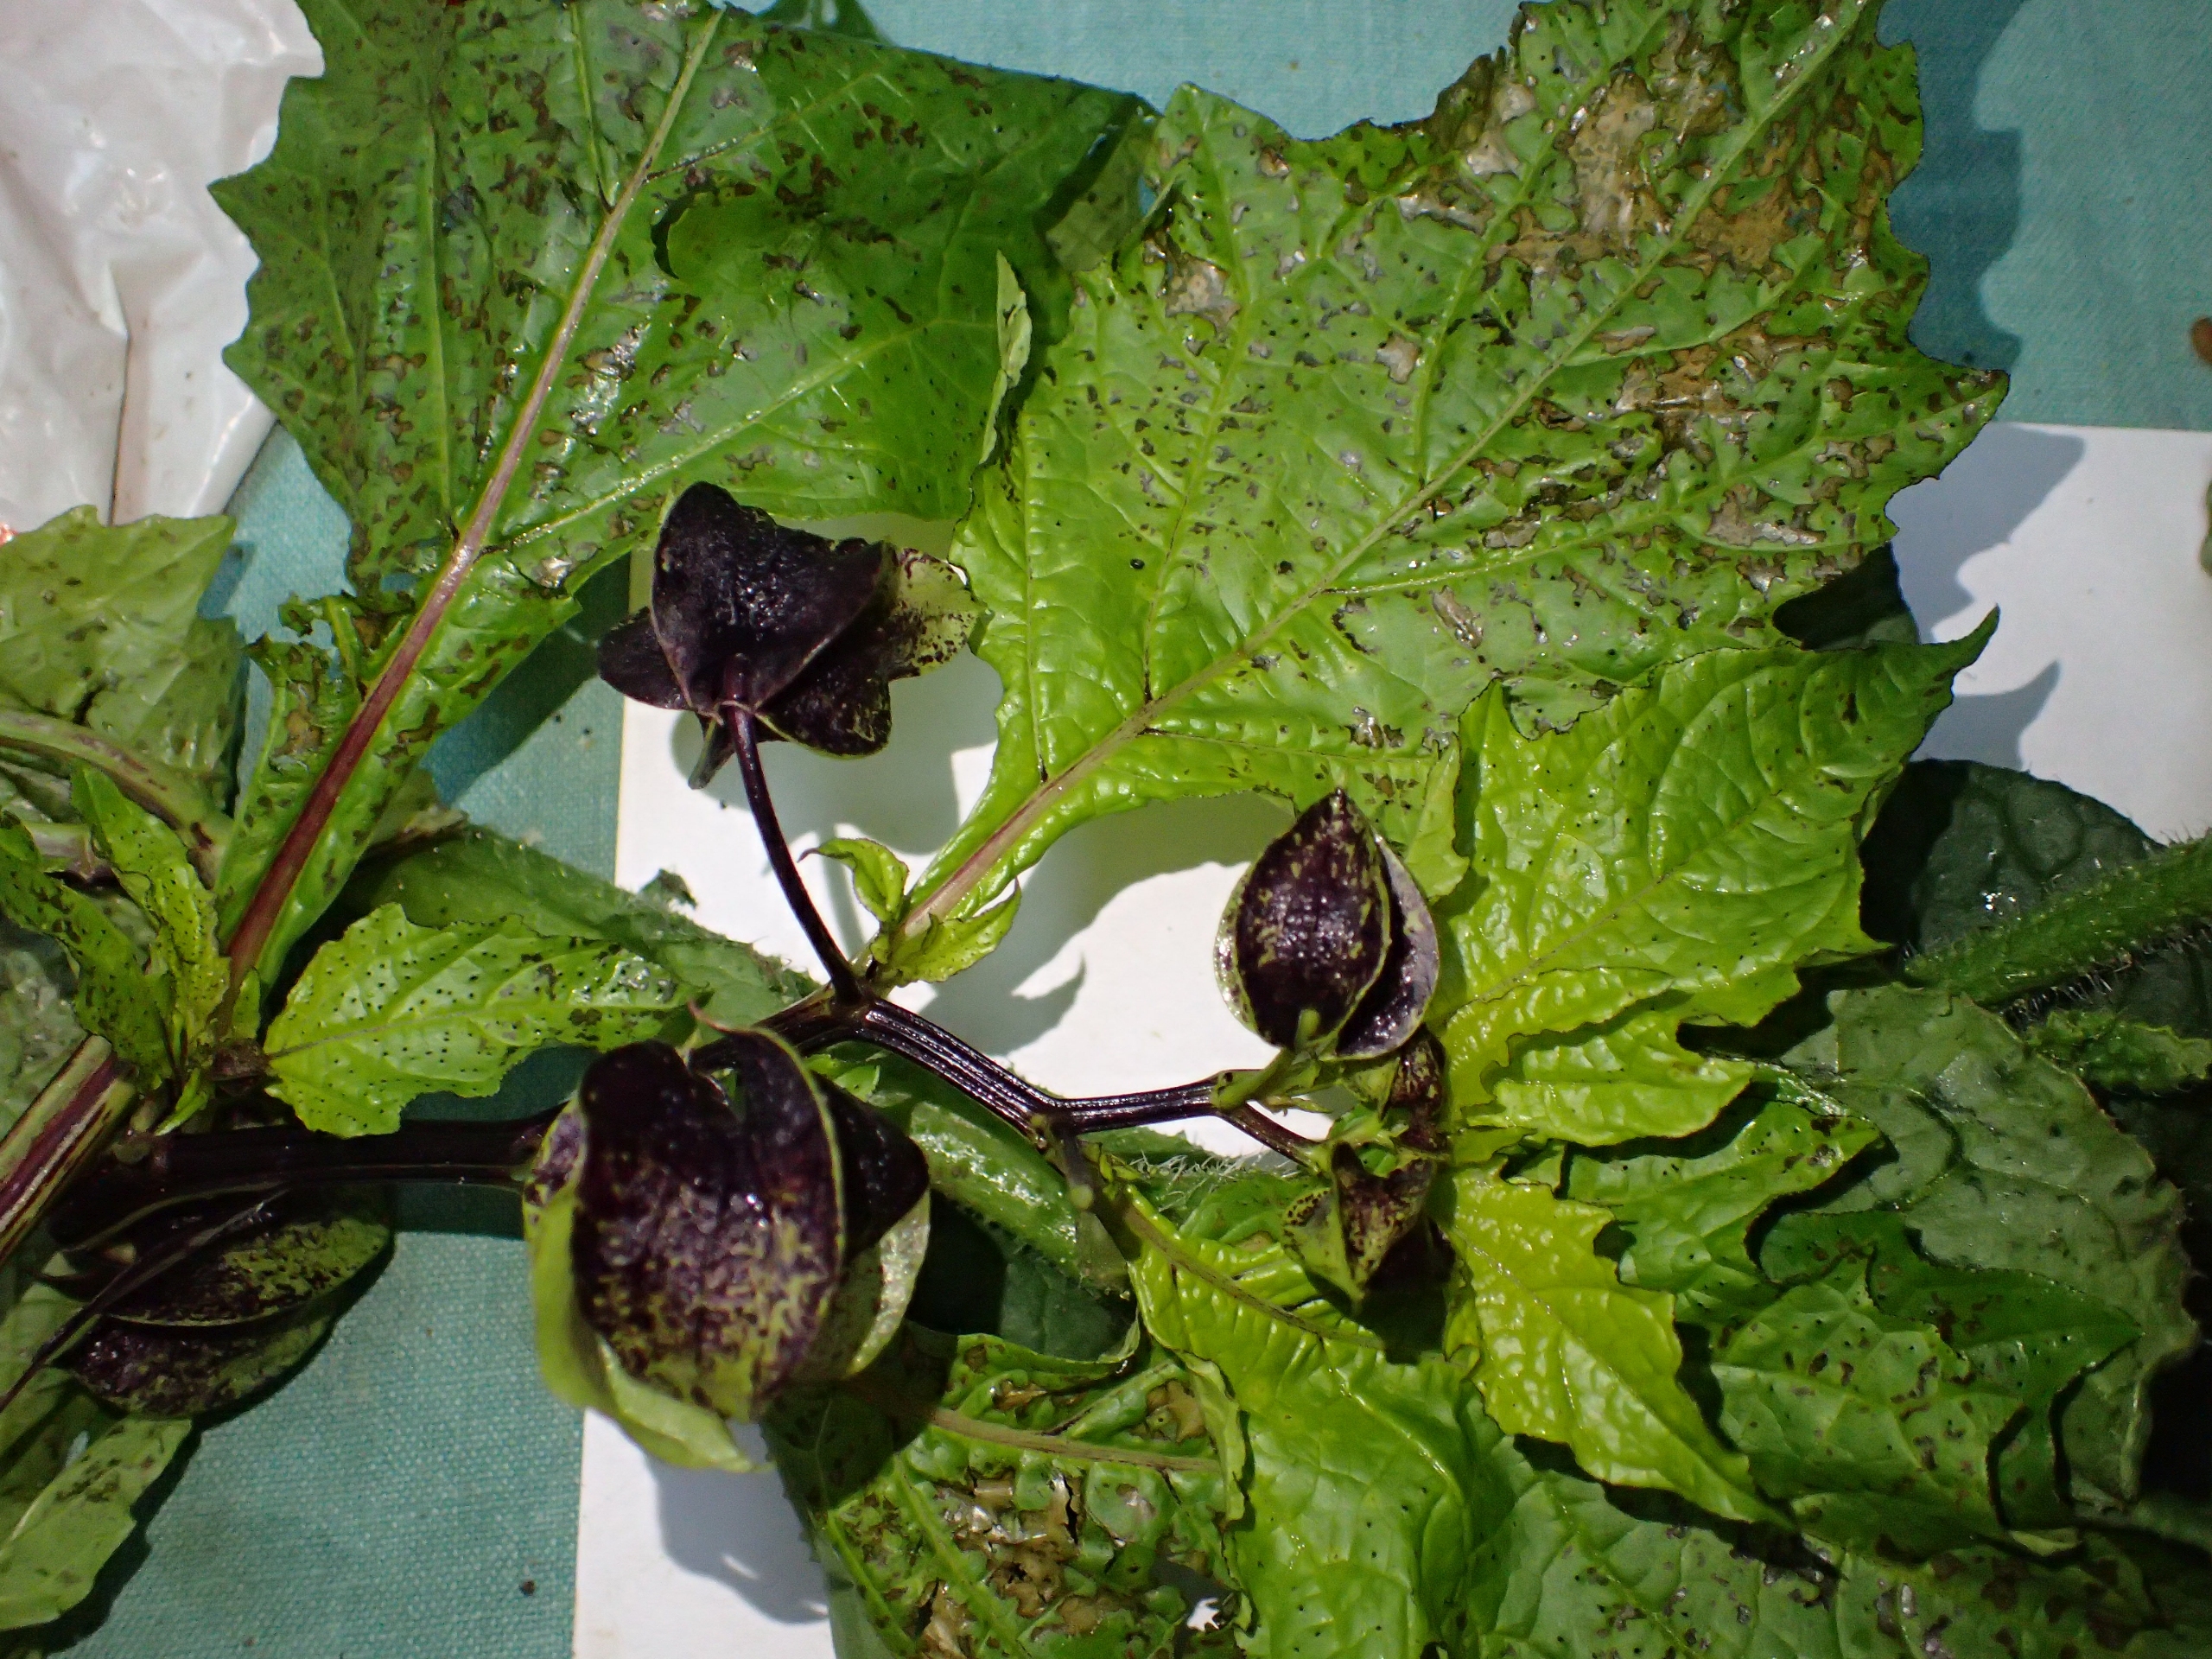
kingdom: Plantae
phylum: Tracheophyta
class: Magnoliopsida
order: Solanales
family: Solanaceae
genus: Nicandra
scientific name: Nicandra physalodes
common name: Kantbæger
